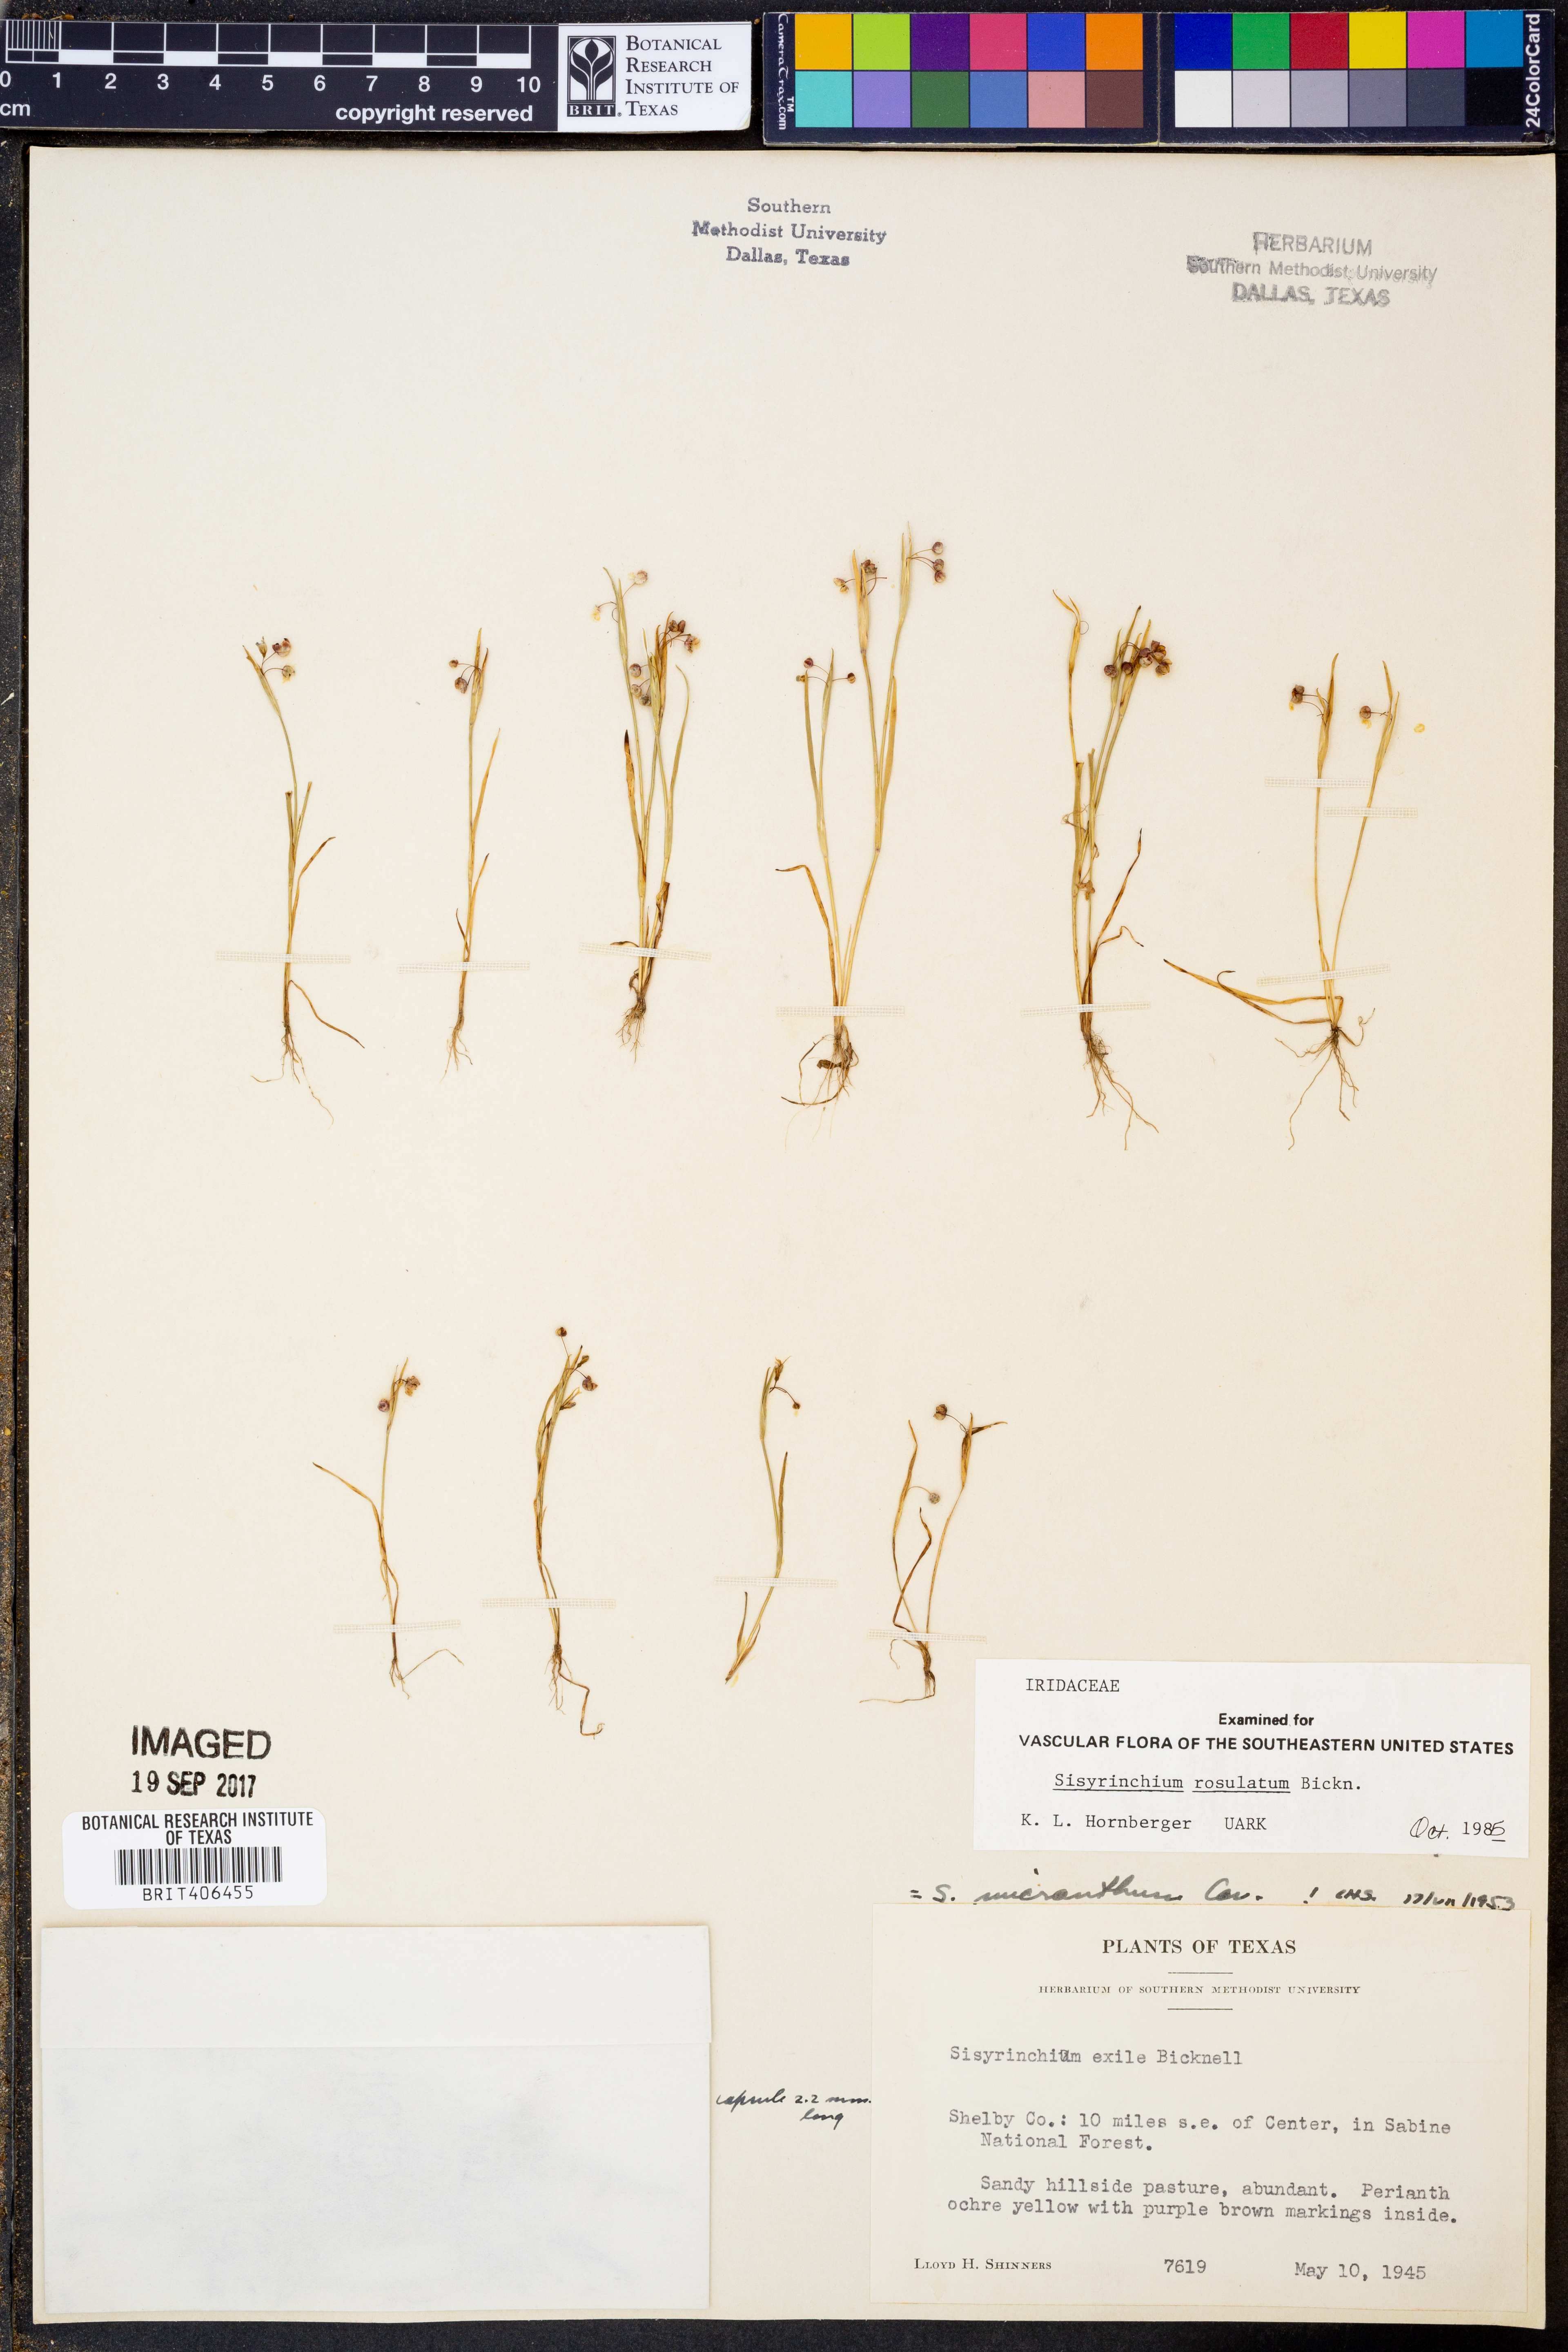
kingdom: Plantae
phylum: Tracheophyta
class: Liliopsida
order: Asparagales
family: Iridaceae
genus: Sisyrinchium
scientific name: Sisyrinchium rosulatum
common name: Annual blue-eyed grass
